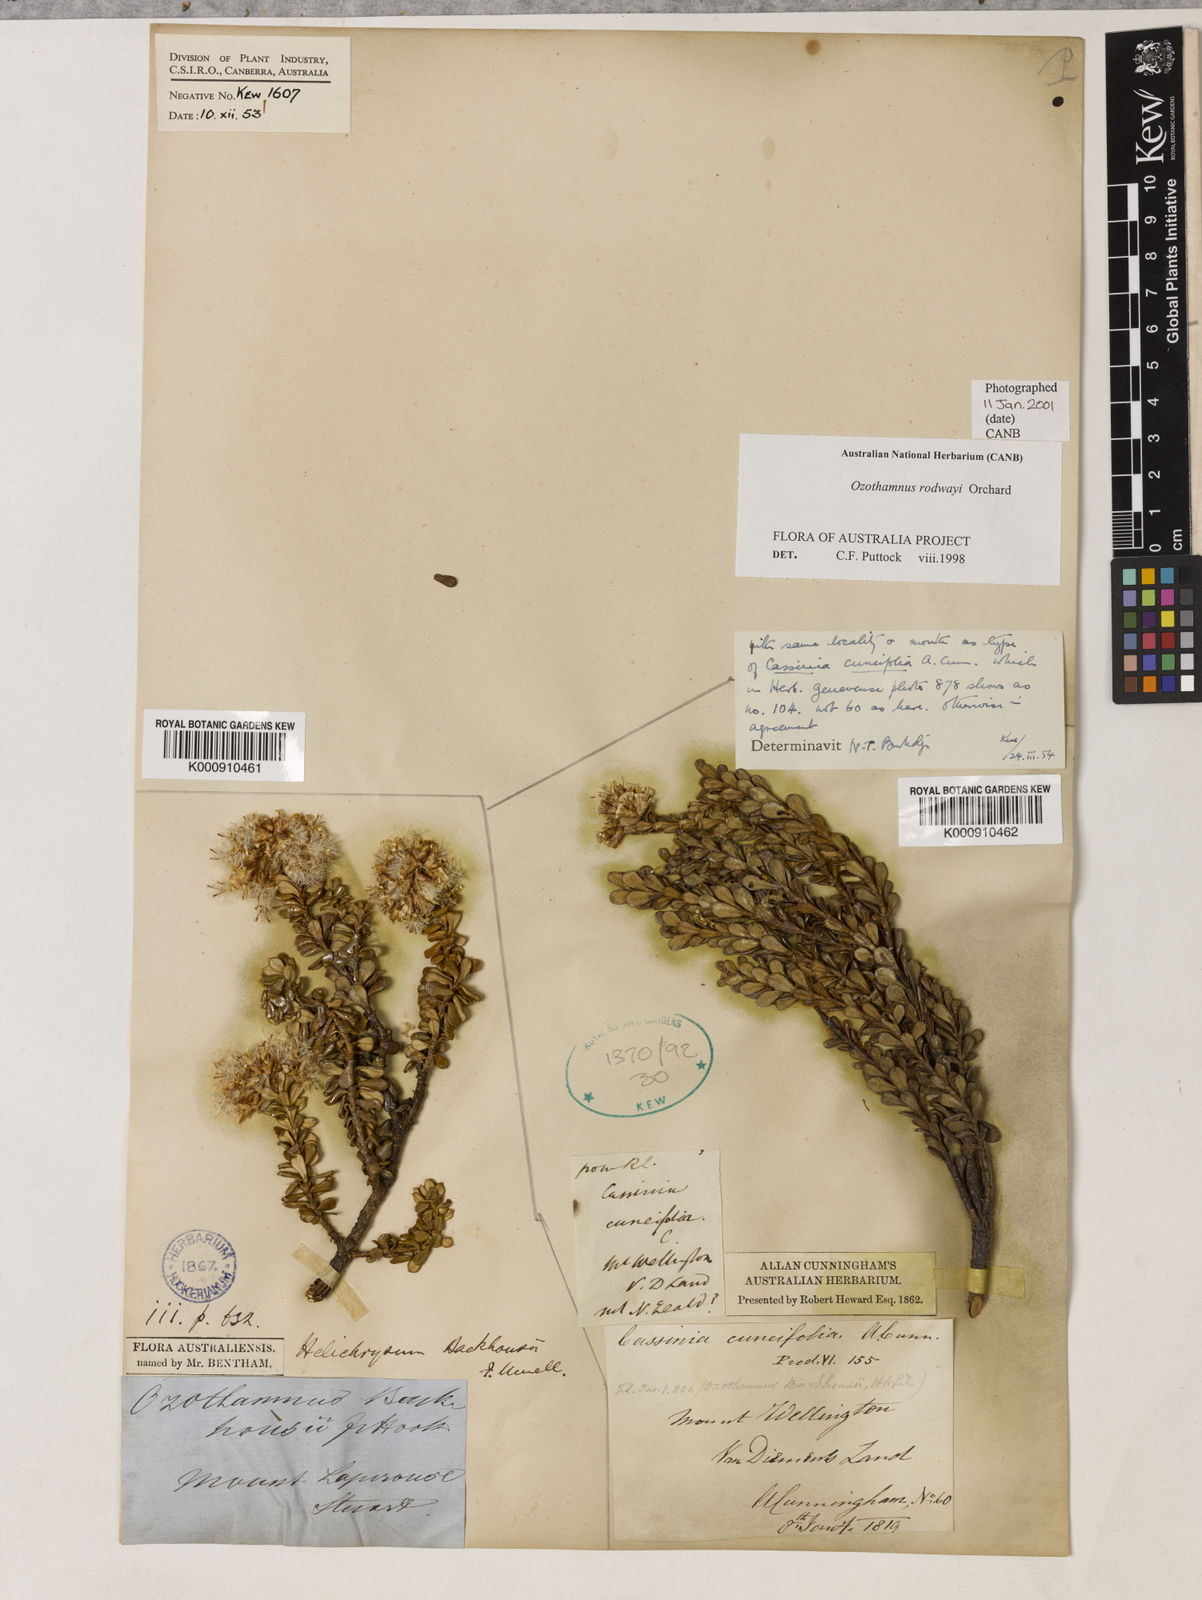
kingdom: Plantae
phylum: Tracheophyta
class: Magnoliopsida
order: Asterales
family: Asteraceae
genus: Ozothamnus
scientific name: Ozothamnus rodwayi
